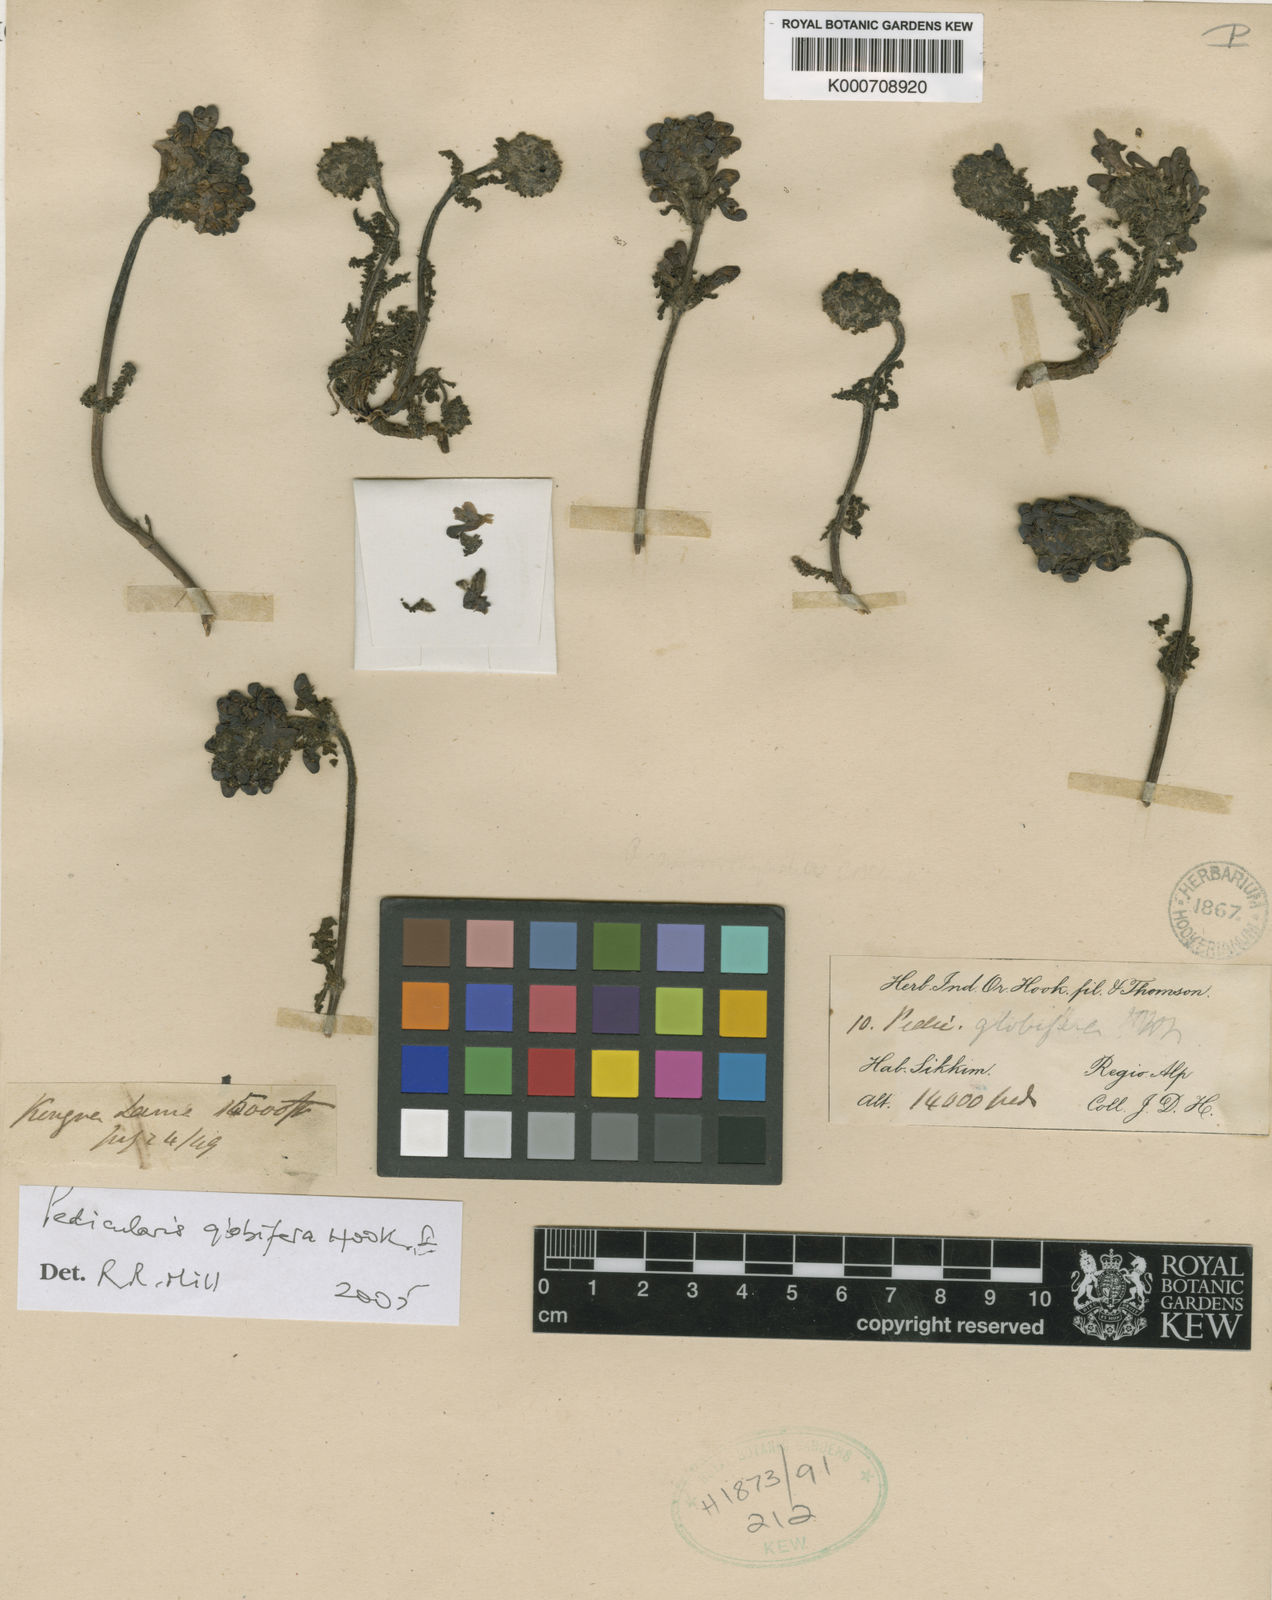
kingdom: Plantae
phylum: Tracheophyta
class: Magnoliopsida
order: Lamiales
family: Orobanchaceae
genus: Pedicularis
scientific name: Pedicularis globifera
